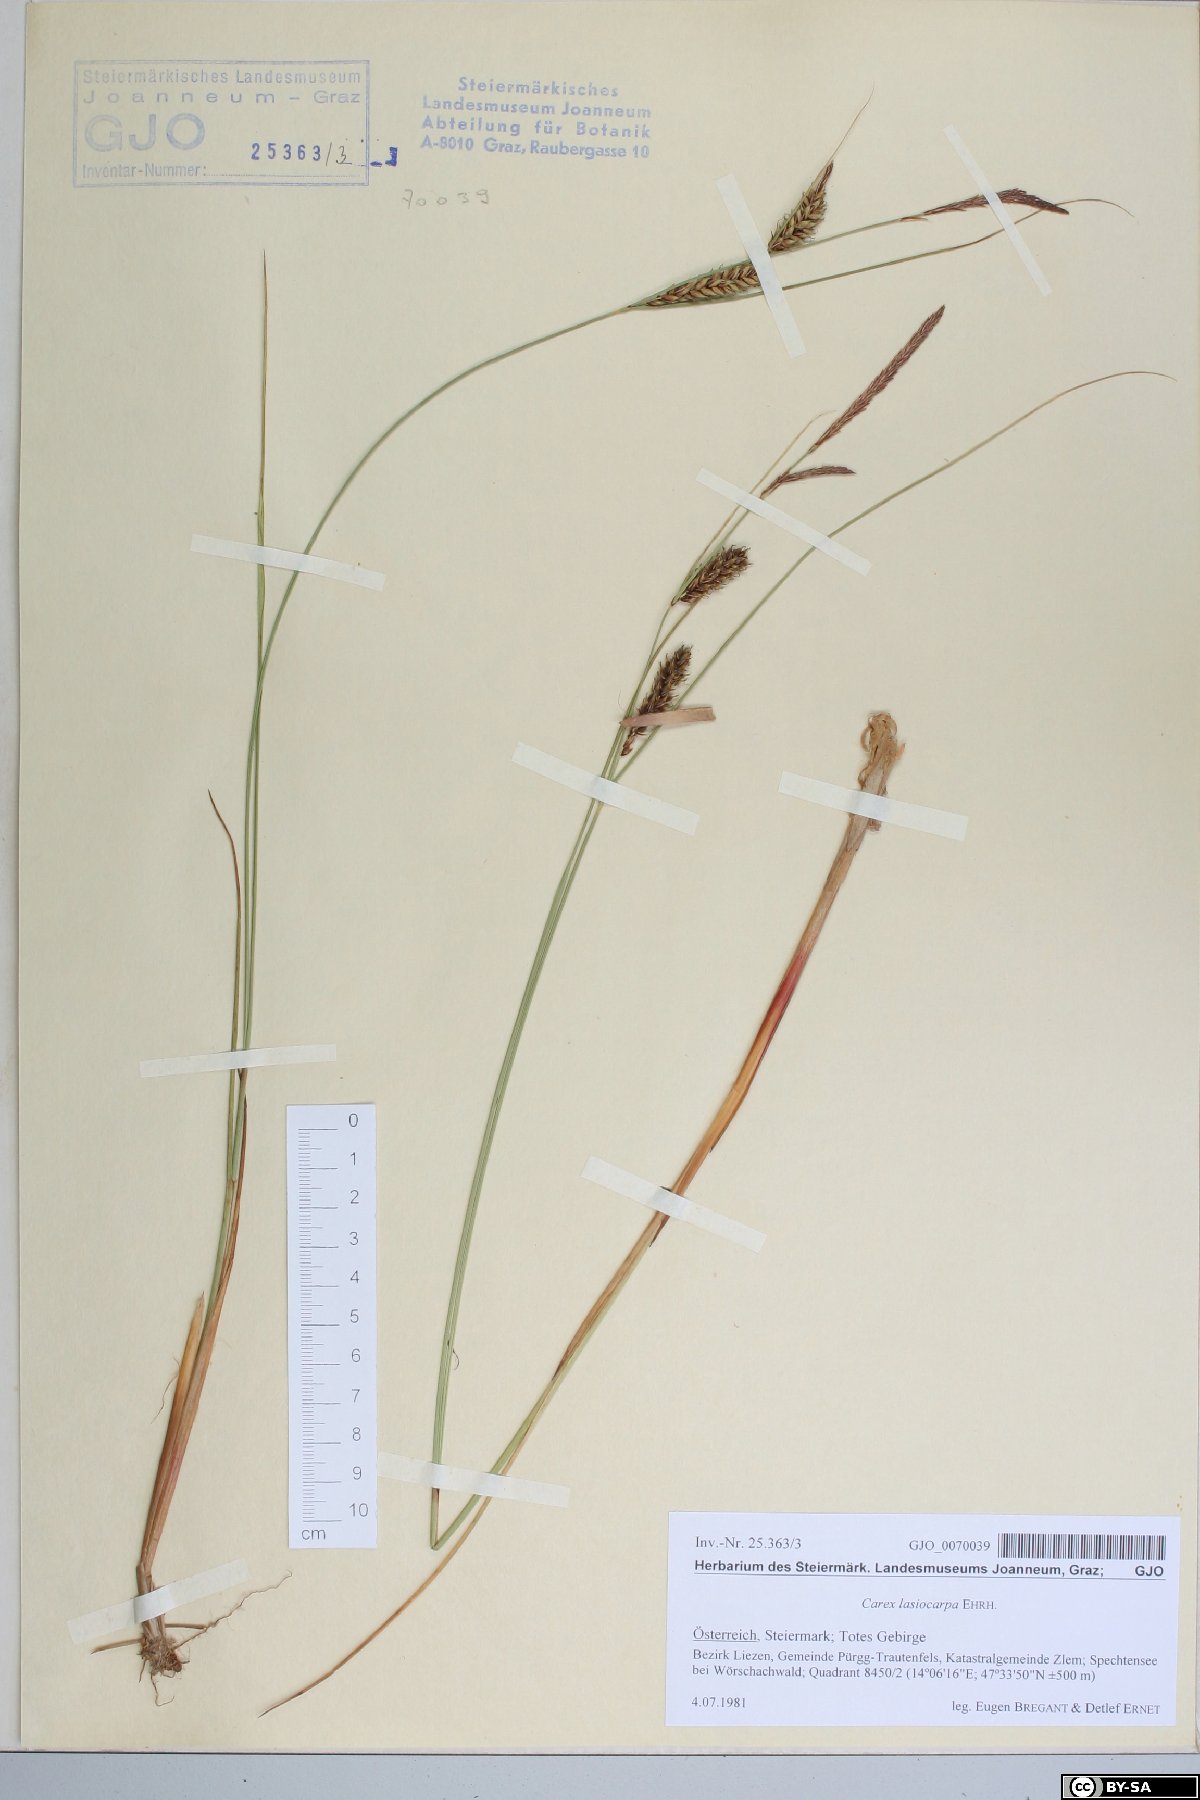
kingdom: Plantae
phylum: Tracheophyta
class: Liliopsida
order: Poales
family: Cyperaceae
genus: Carex
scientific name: Carex lasiocarpa
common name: Slender sedge
